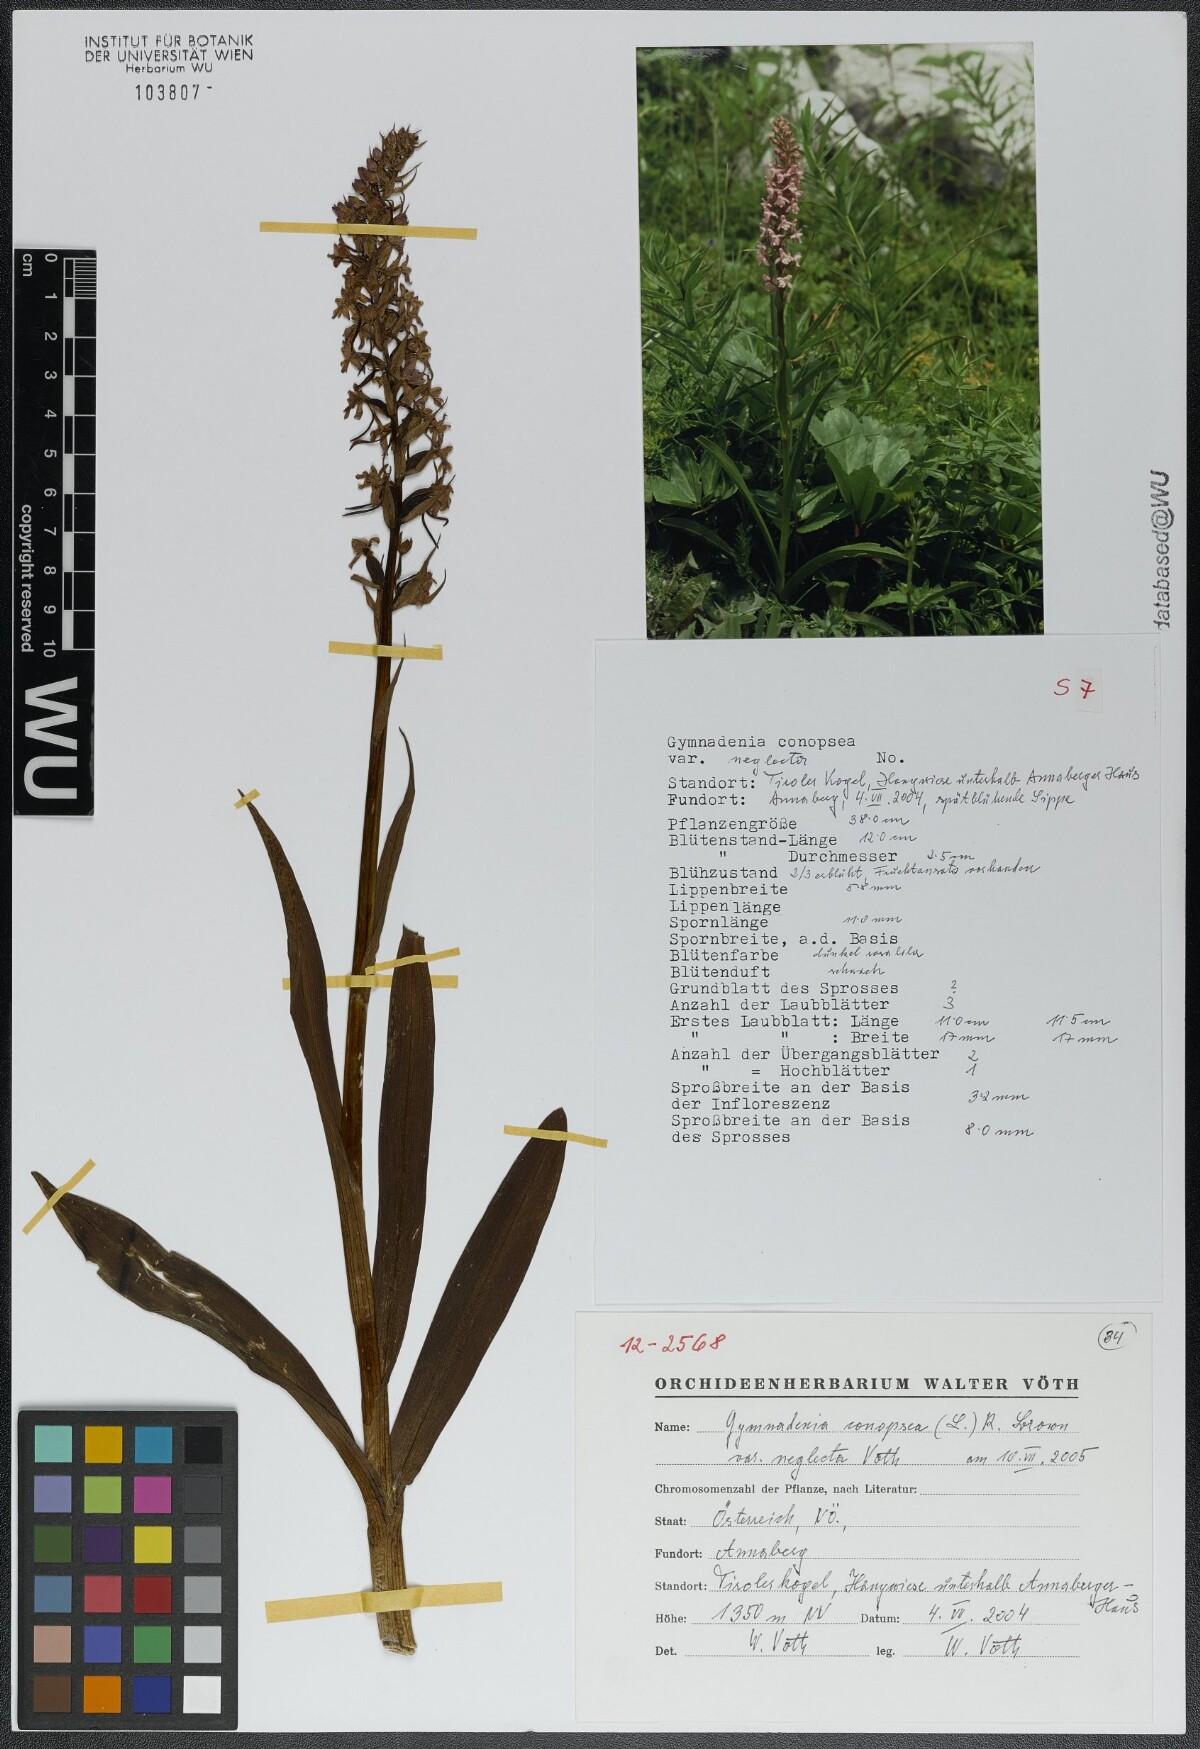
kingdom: Plantae
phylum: Tracheophyta
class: Liliopsida
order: Asparagales
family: Orchidaceae
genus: Gymnadenia
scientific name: Gymnadenia conopsea
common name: Fragrant orchid
